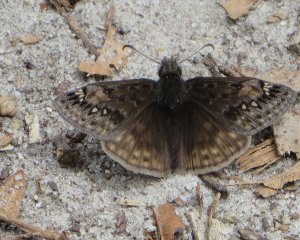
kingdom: Animalia
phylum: Arthropoda
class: Insecta
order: Lepidoptera
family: Hesperiidae
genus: Gesta
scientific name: Gesta
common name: Juvenal's Duskywing
